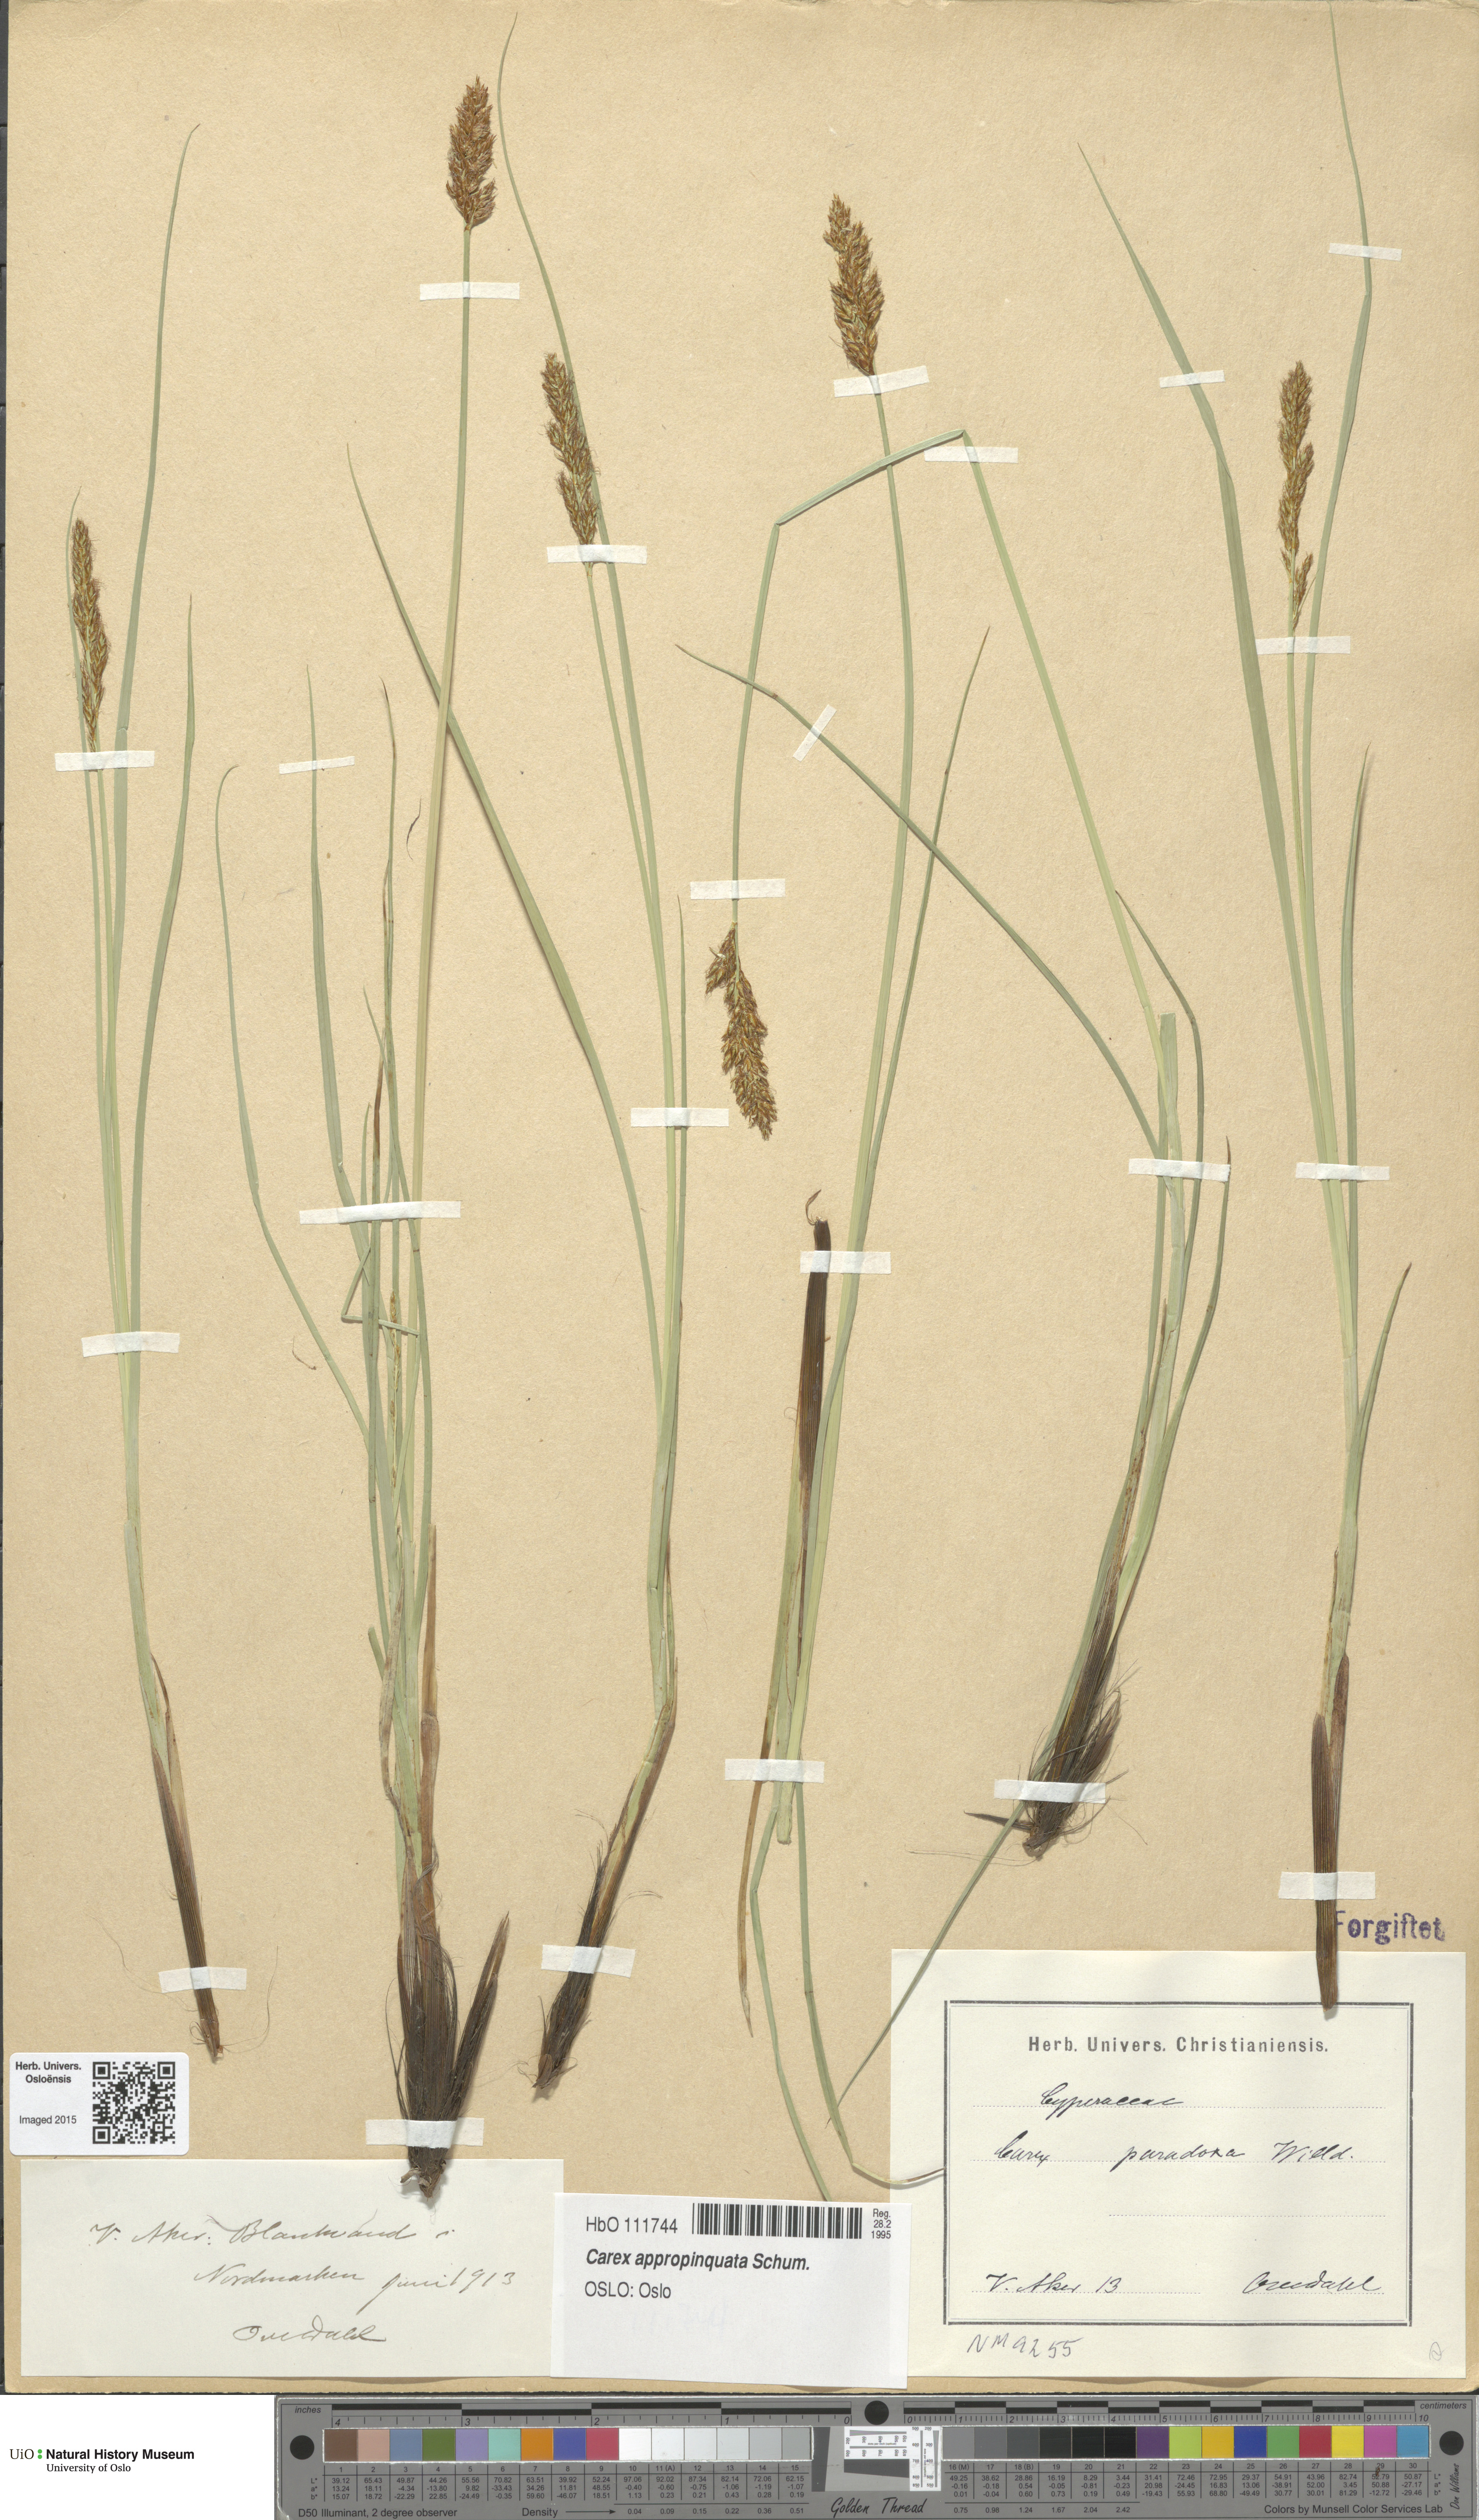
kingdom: Plantae
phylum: Tracheophyta
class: Liliopsida
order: Poales
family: Cyperaceae
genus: Carex
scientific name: Carex appropinquata
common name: Fibrous tussock-sedge
